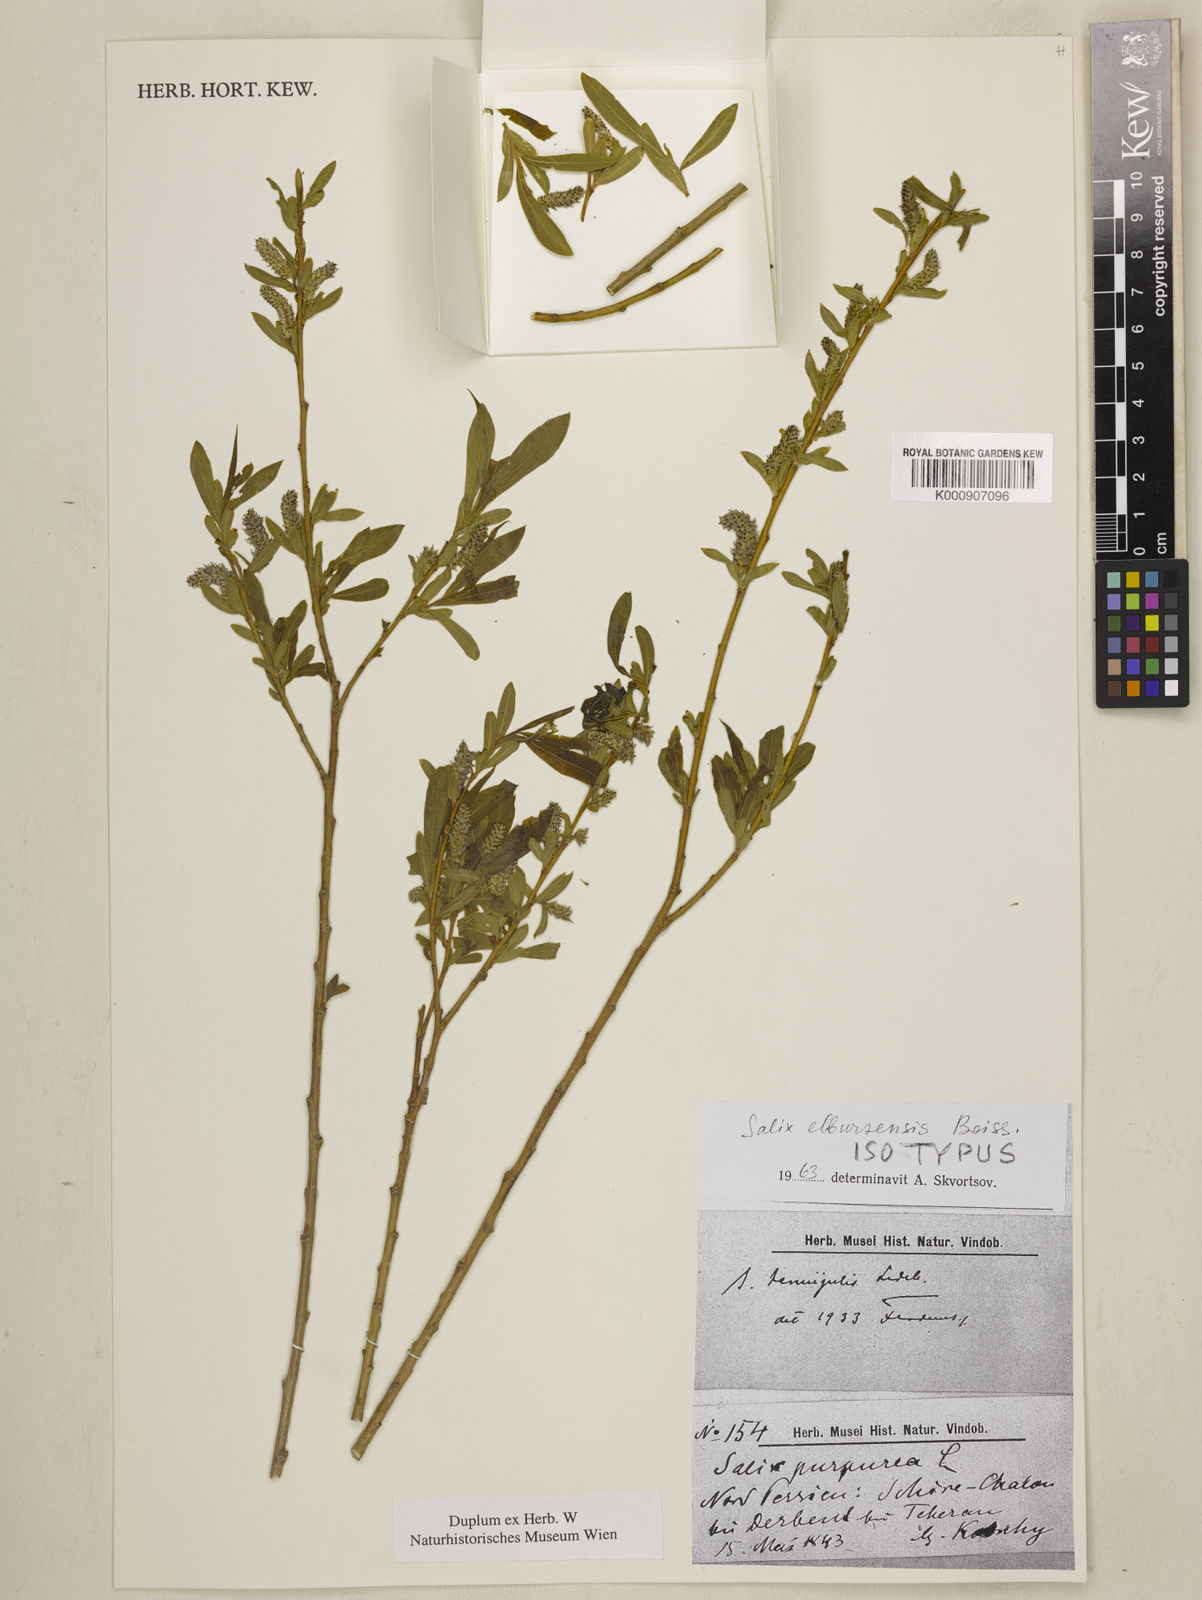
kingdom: Plantae
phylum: Tracheophyta
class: Magnoliopsida
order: Malpighiales
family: Salicaceae
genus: Salix
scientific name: Salix elbrusensis
